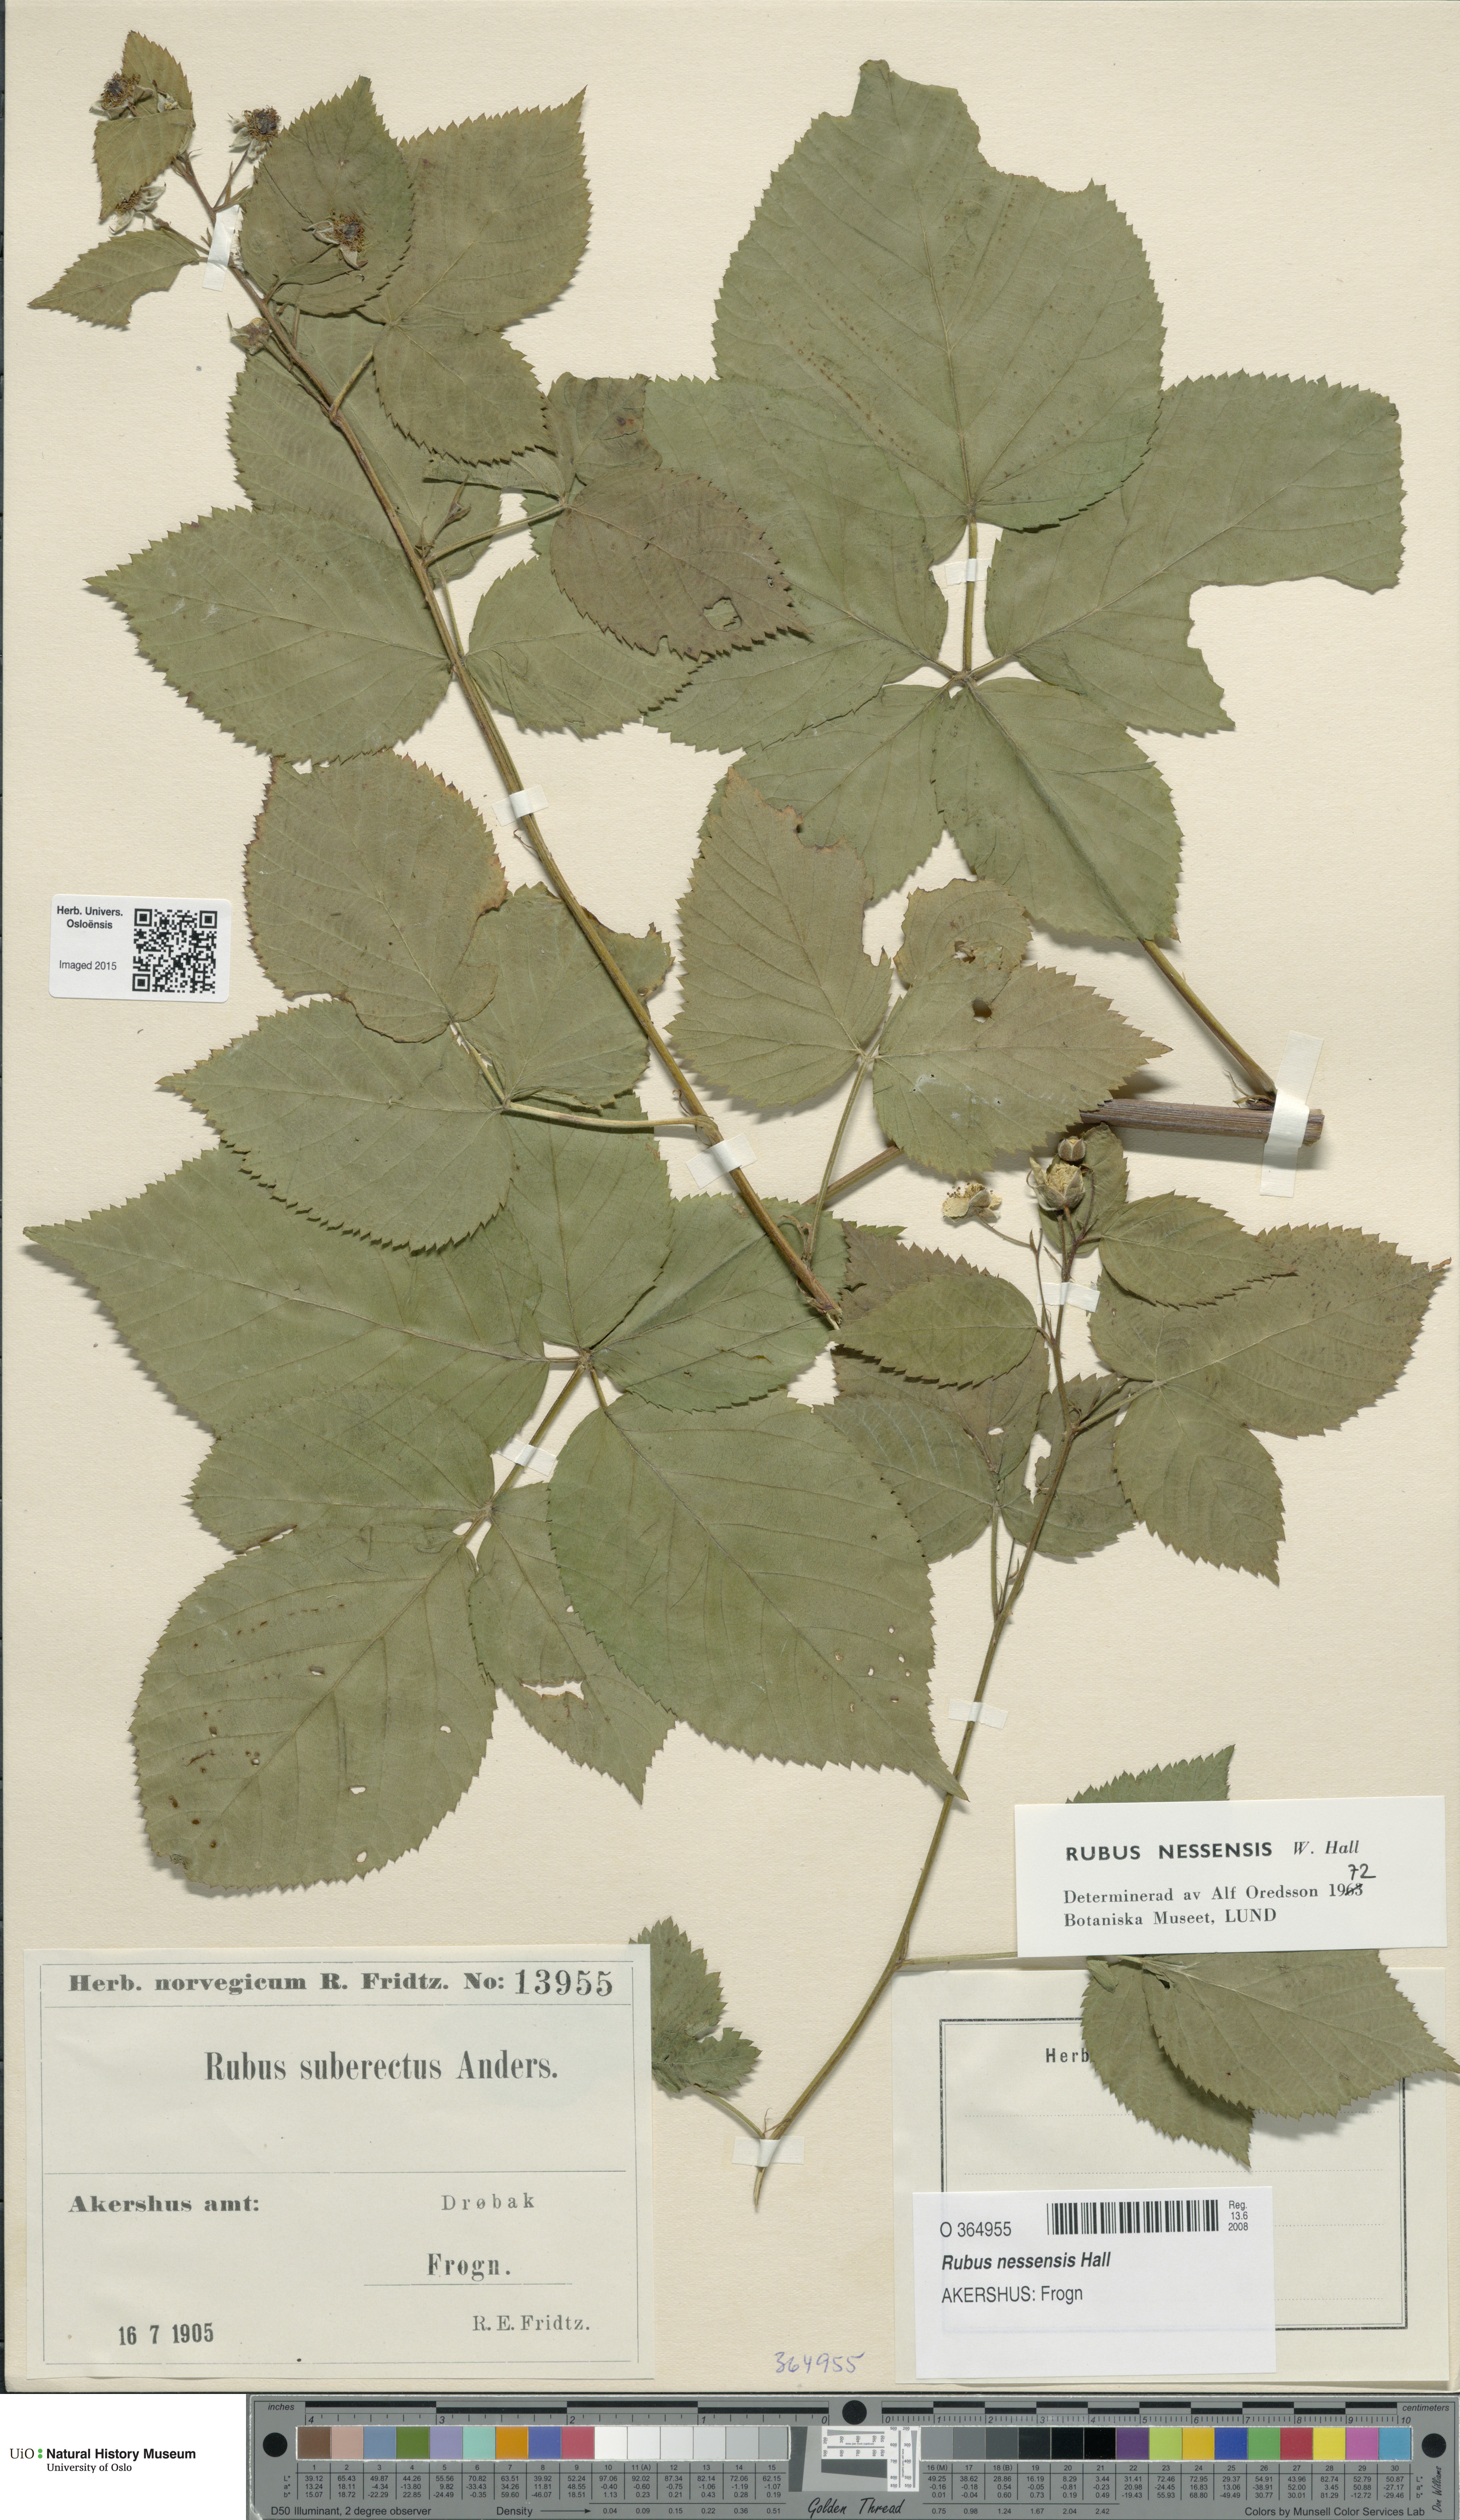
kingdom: Plantae
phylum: Tracheophyta
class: Magnoliopsida
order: Rosales
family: Rosaceae
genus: Rubus
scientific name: Rubus polonicus
